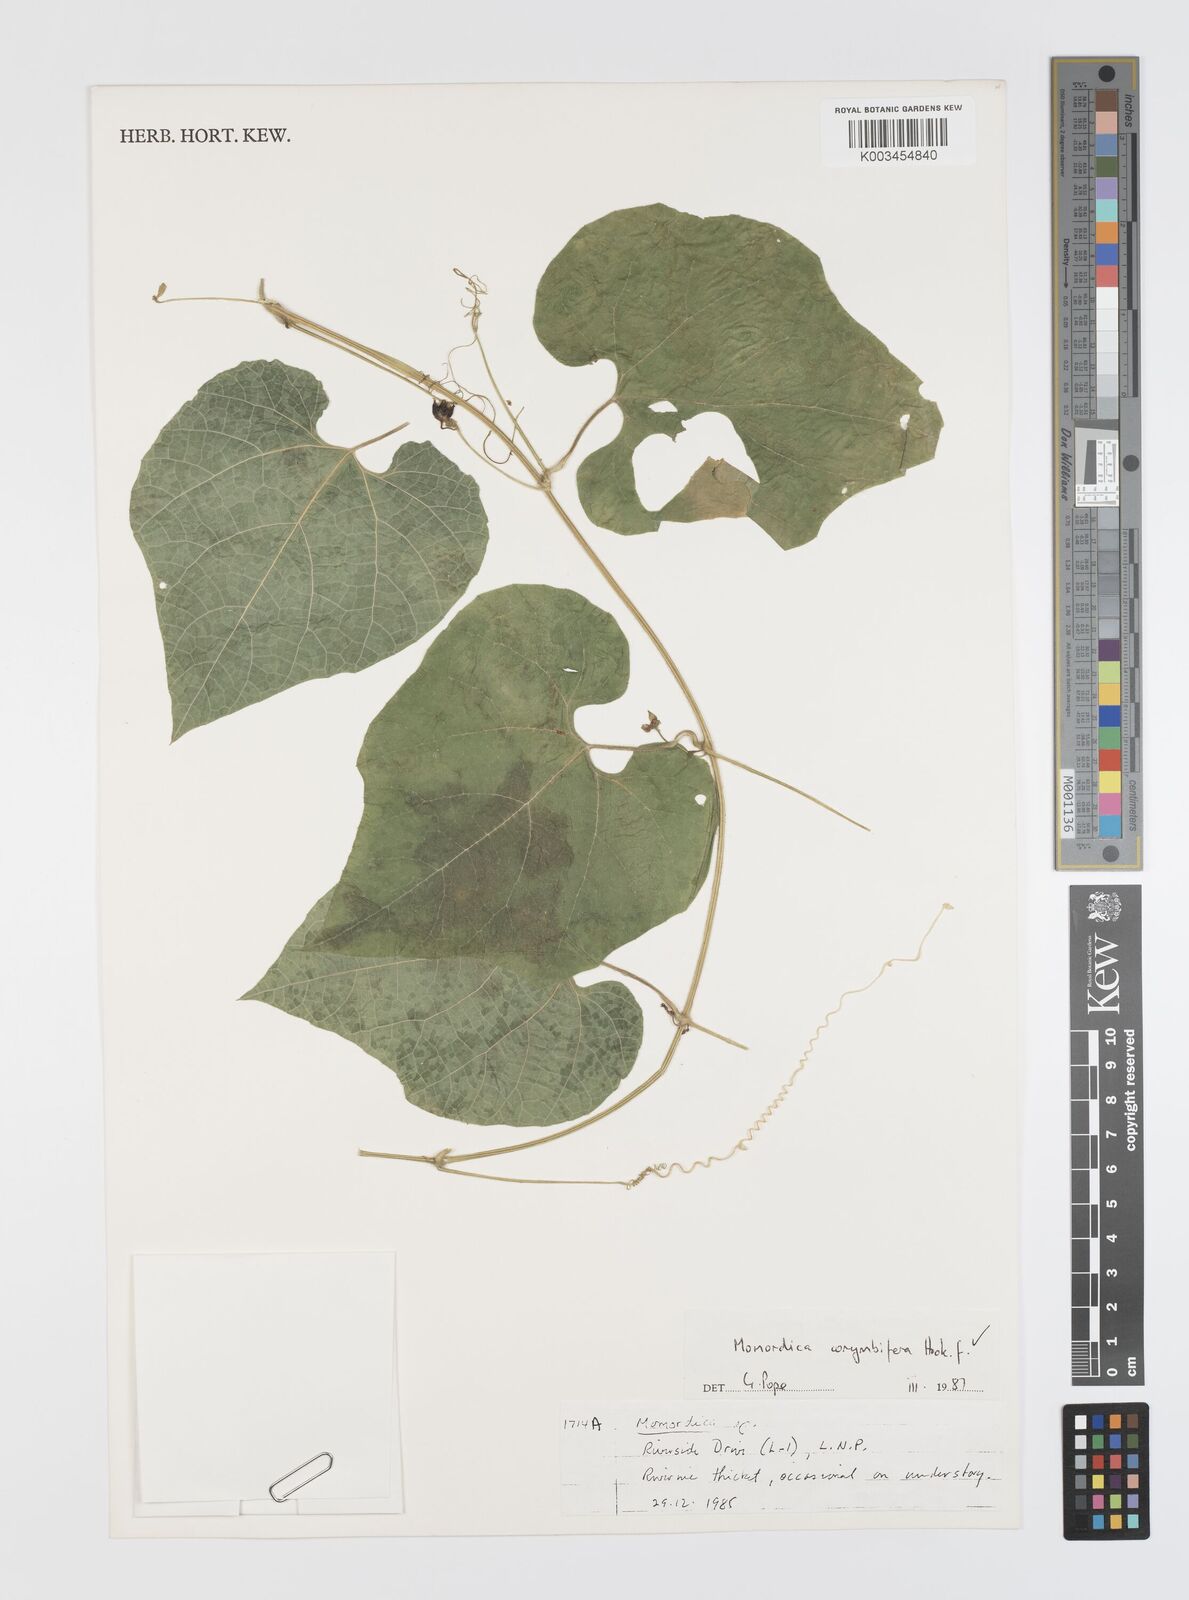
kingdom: Plantae
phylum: Tracheophyta
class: Magnoliopsida
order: Cucurbitales
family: Cucurbitaceae
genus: Momordica
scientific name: Momordica corymbifera
